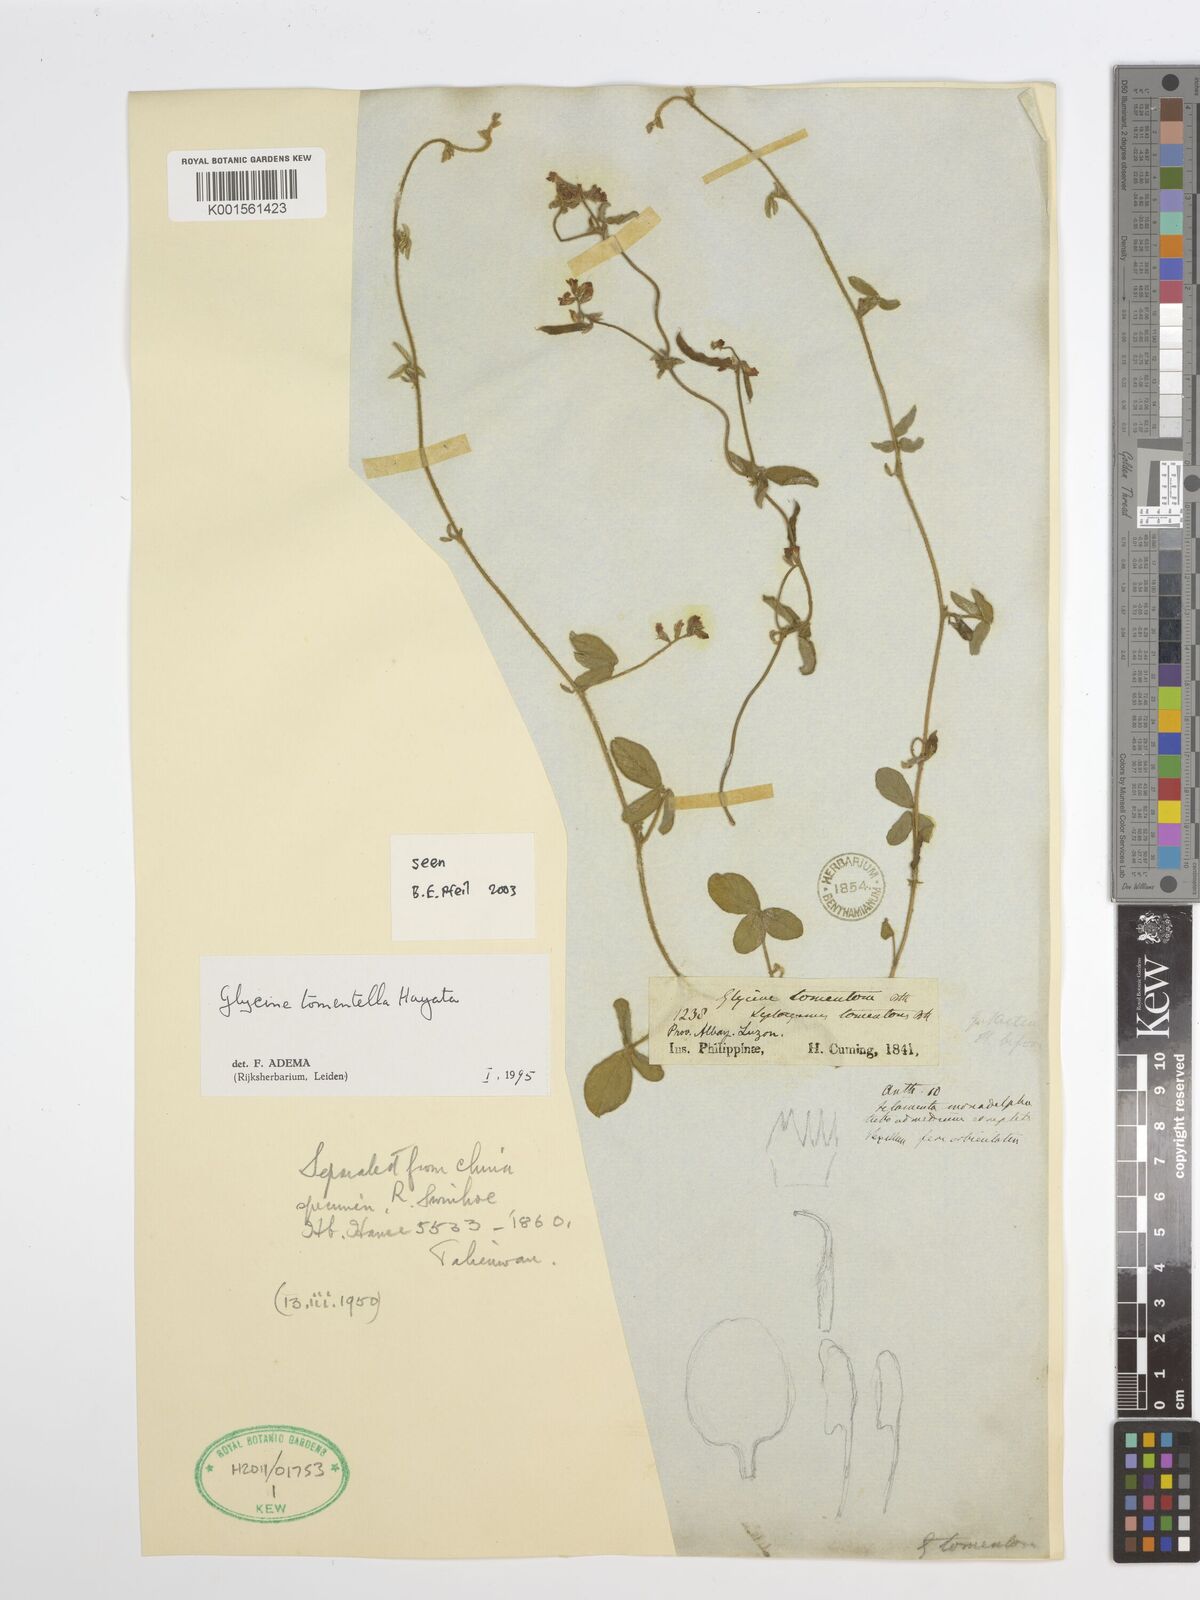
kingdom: Plantae
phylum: Tracheophyta
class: Magnoliopsida
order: Fabales
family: Fabaceae
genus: Glycine
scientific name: Glycine tomentella
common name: Hairy glycine
